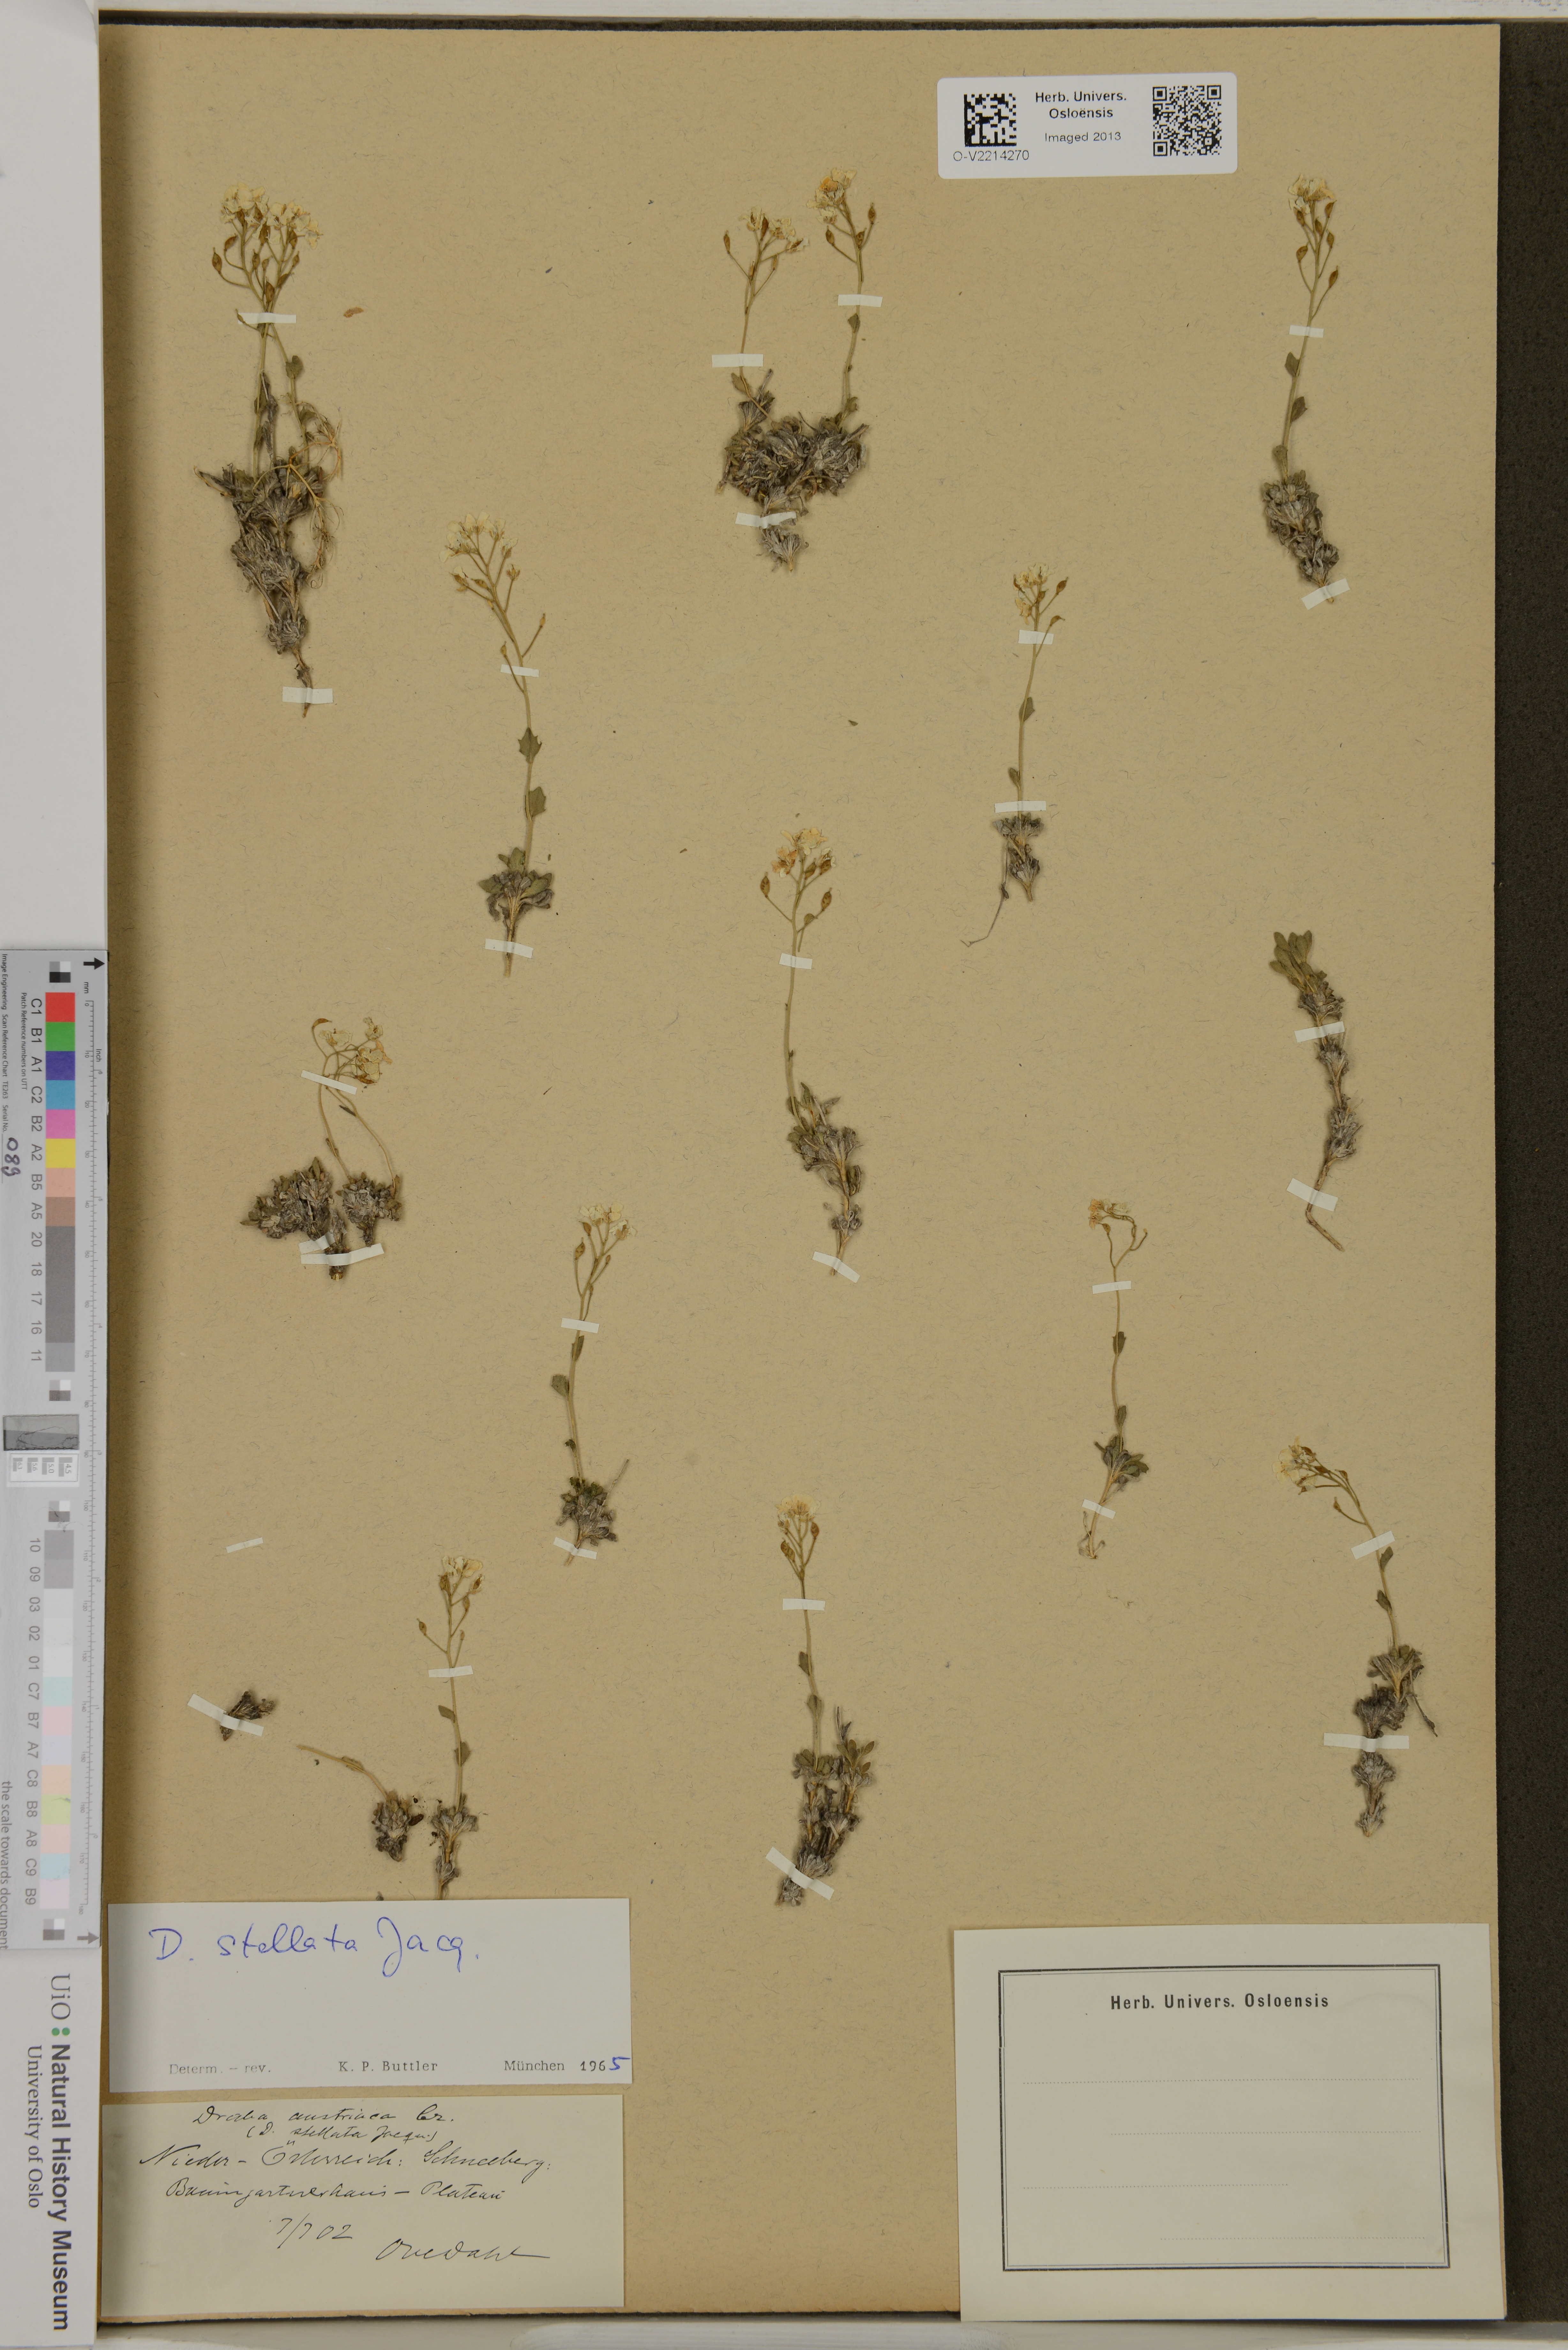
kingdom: Plantae
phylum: Tracheophyta
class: Magnoliopsida
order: Brassicales
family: Brassicaceae
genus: Draba
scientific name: Draba stellata
